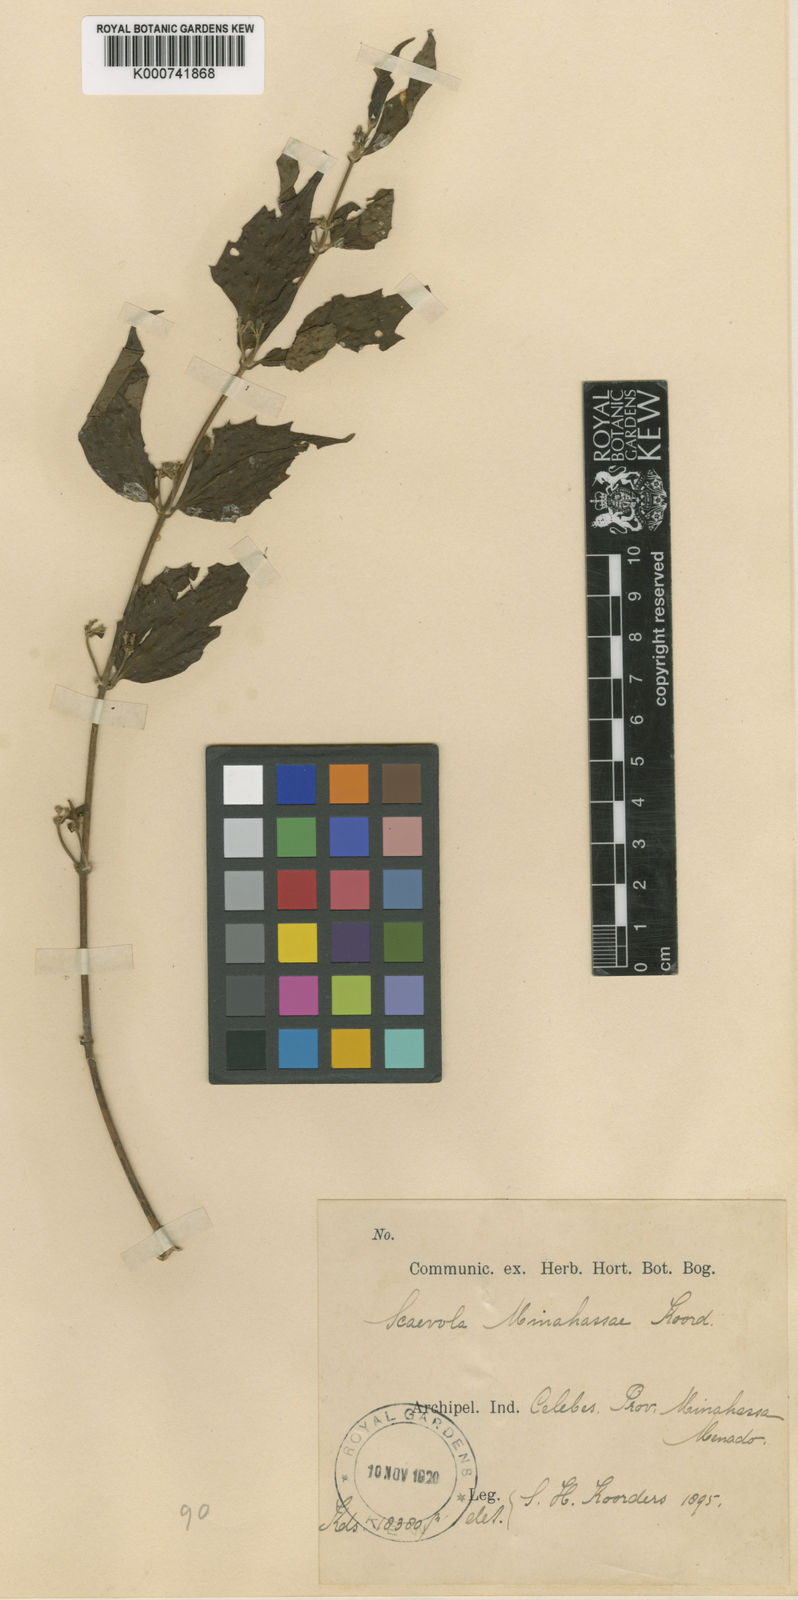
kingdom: Plantae
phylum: Tracheophyta
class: Magnoliopsida
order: Asterales
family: Goodeniaceae
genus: Scaevola
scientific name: Scaevola oppositifolia
